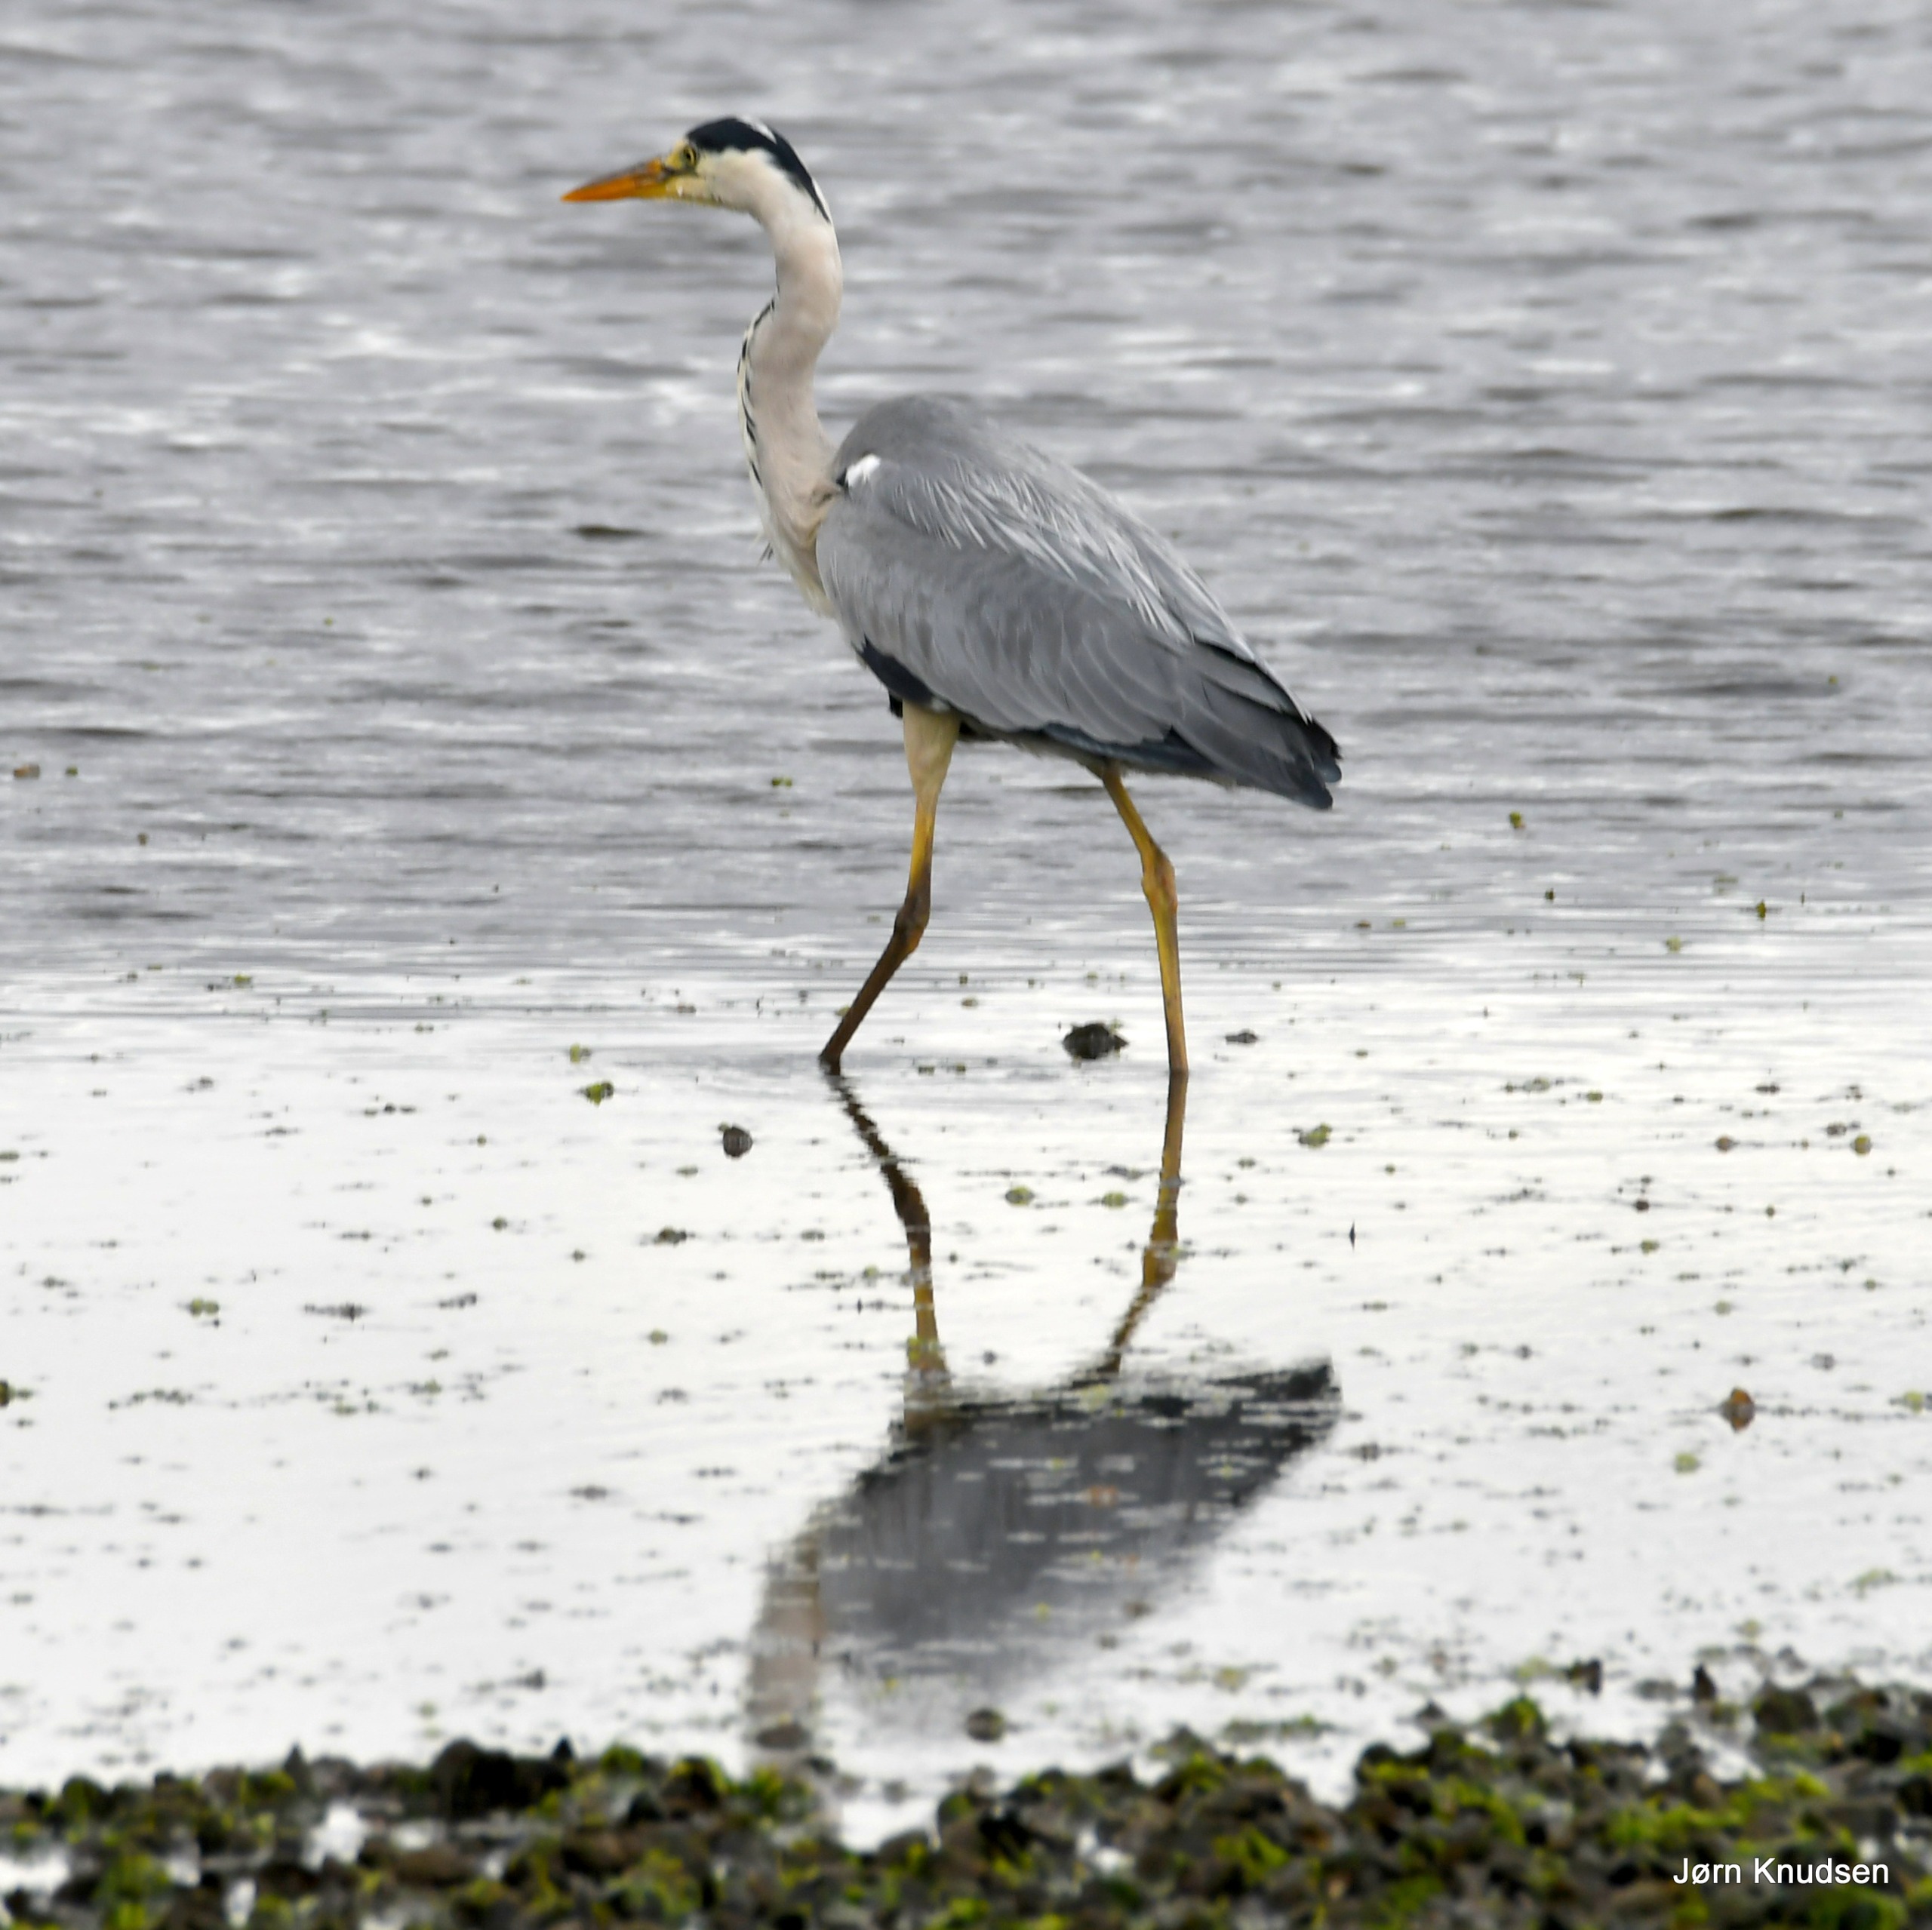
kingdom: Animalia
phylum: Chordata
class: Aves
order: Pelecaniformes
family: Ardeidae
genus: Ardea
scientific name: Ardea cinerea
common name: Fiskehejre
